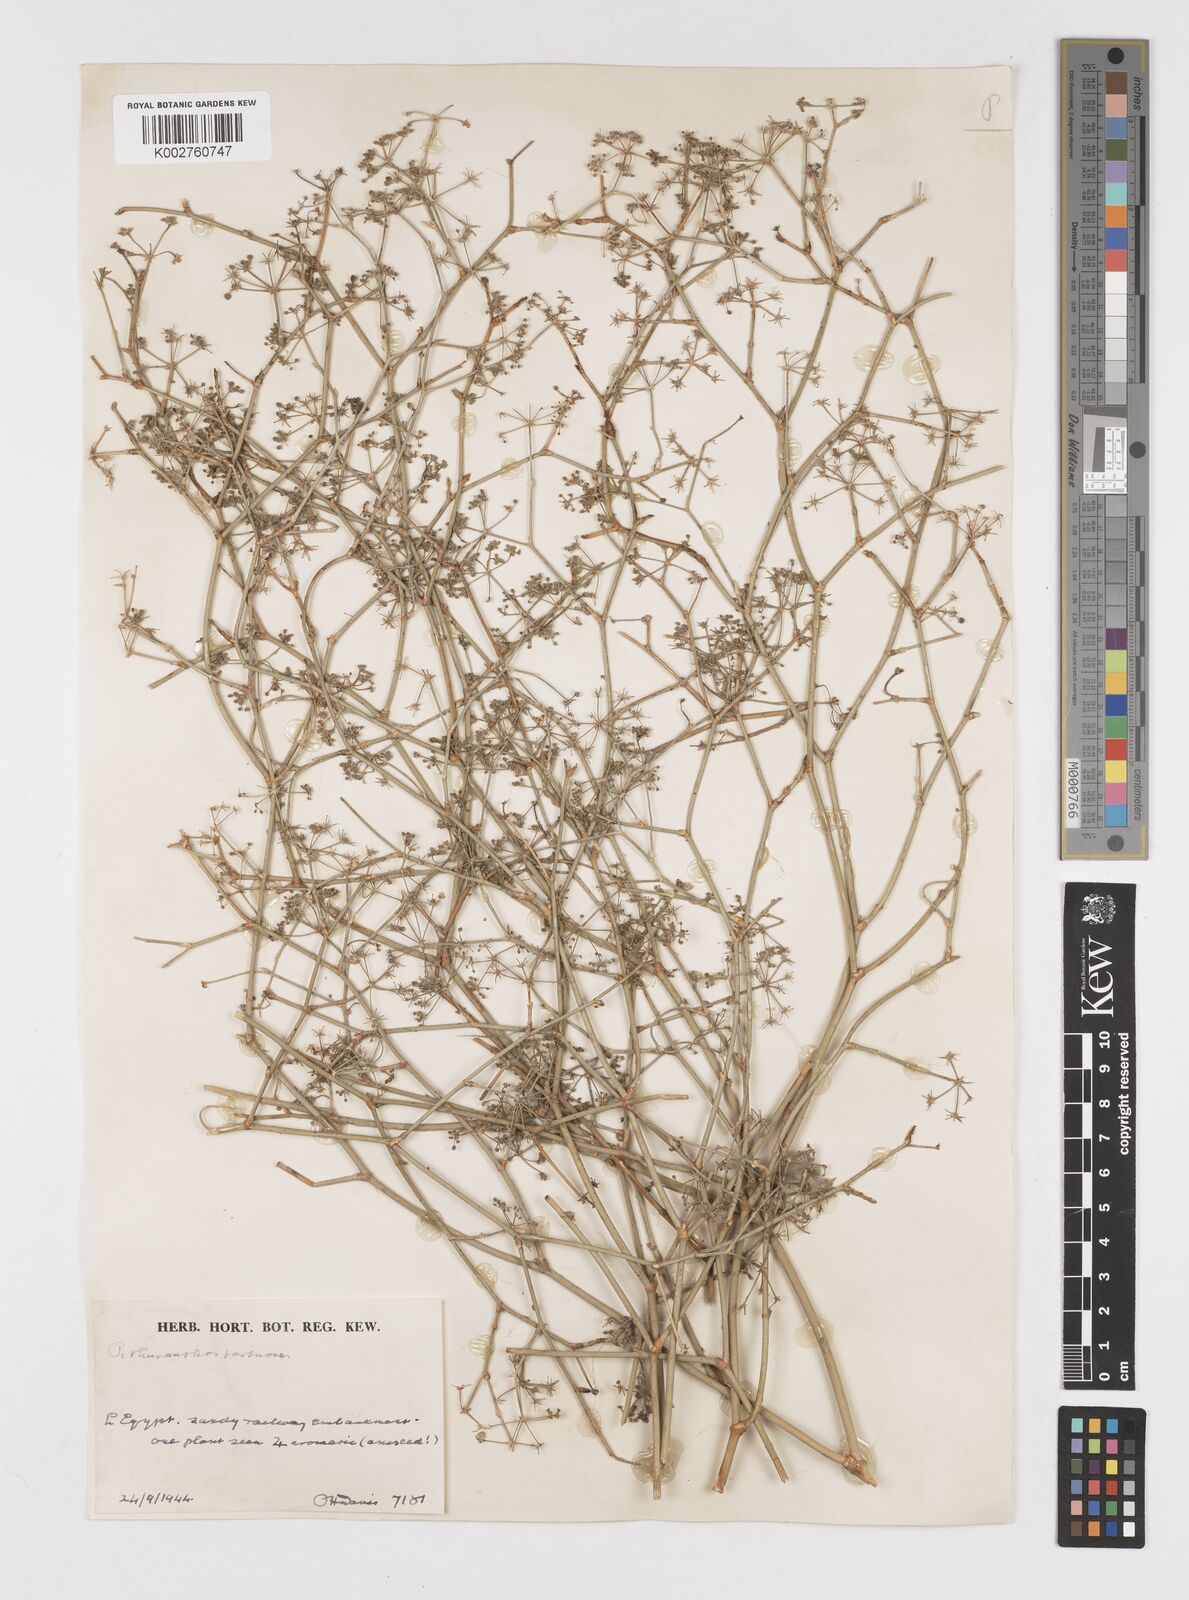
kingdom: Plantae
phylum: Tracheophyta
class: Magnoliopsida
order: Apiales
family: Apiaceae
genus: Deverra
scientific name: Deverra tortuosa
